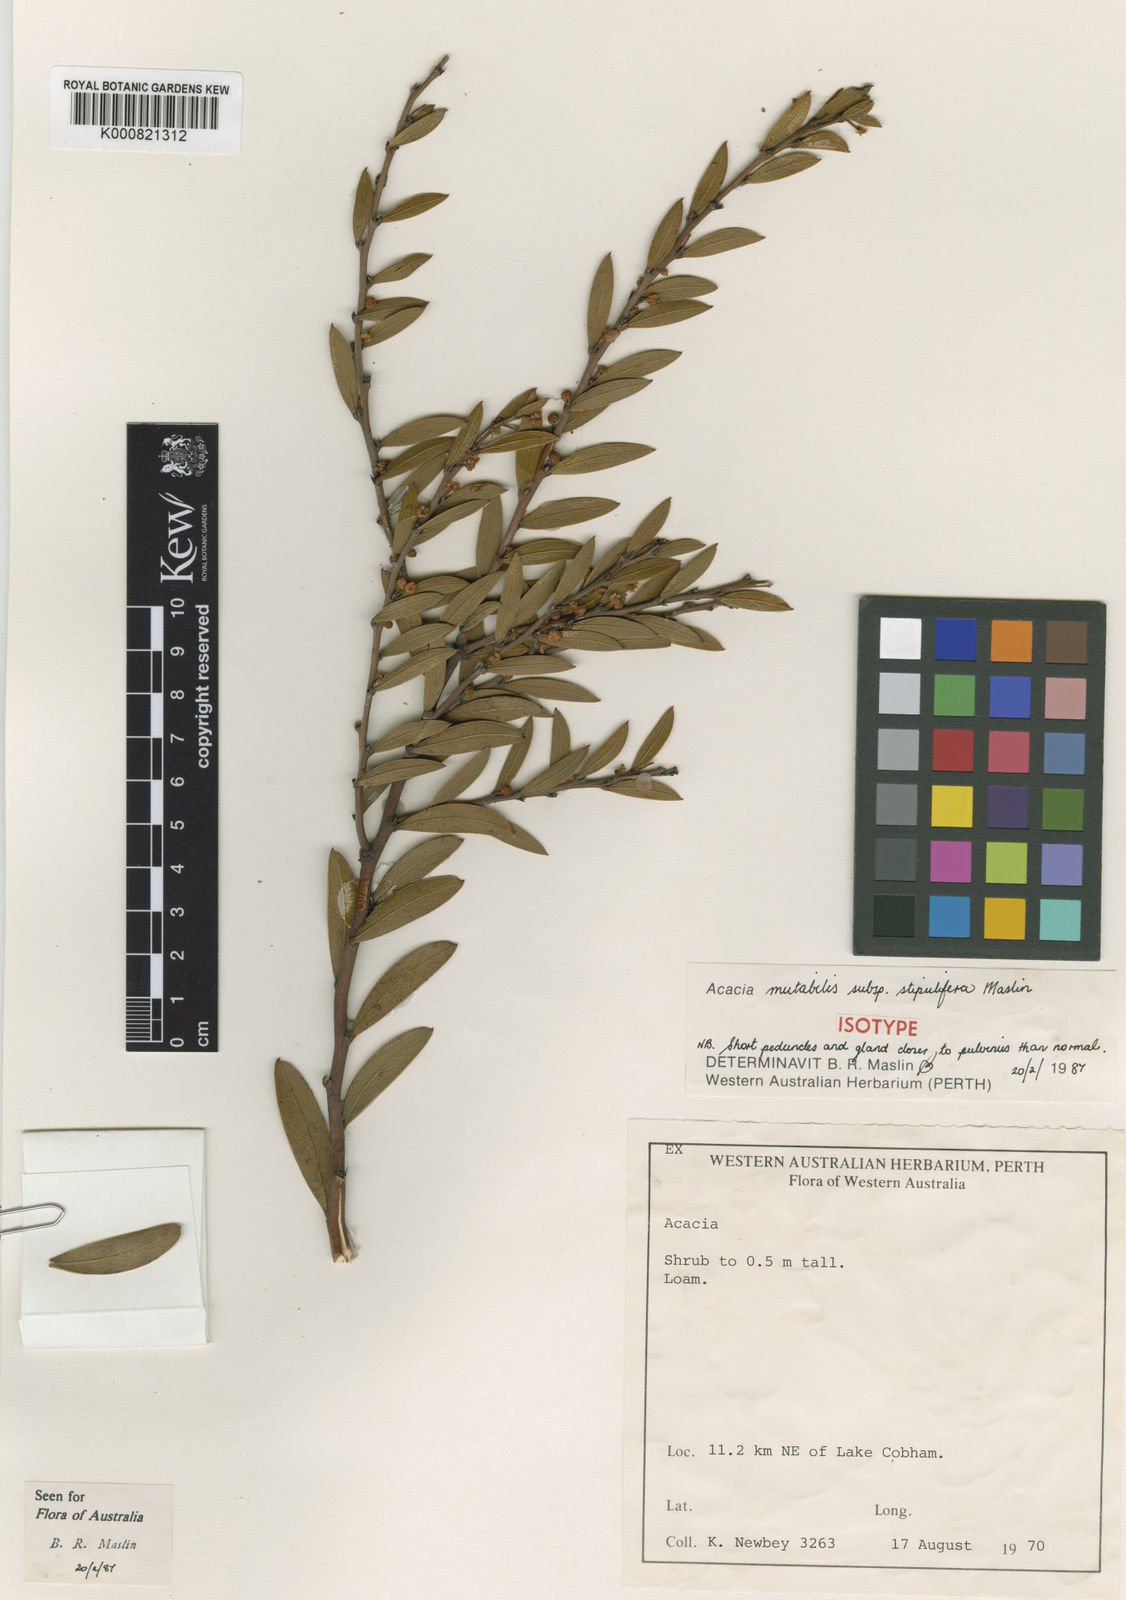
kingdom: Plantae
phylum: Tracheophyta
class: Magnoliopsida
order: Fabales
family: Fabaceae
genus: Acacia
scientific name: Acacia mutabilis
